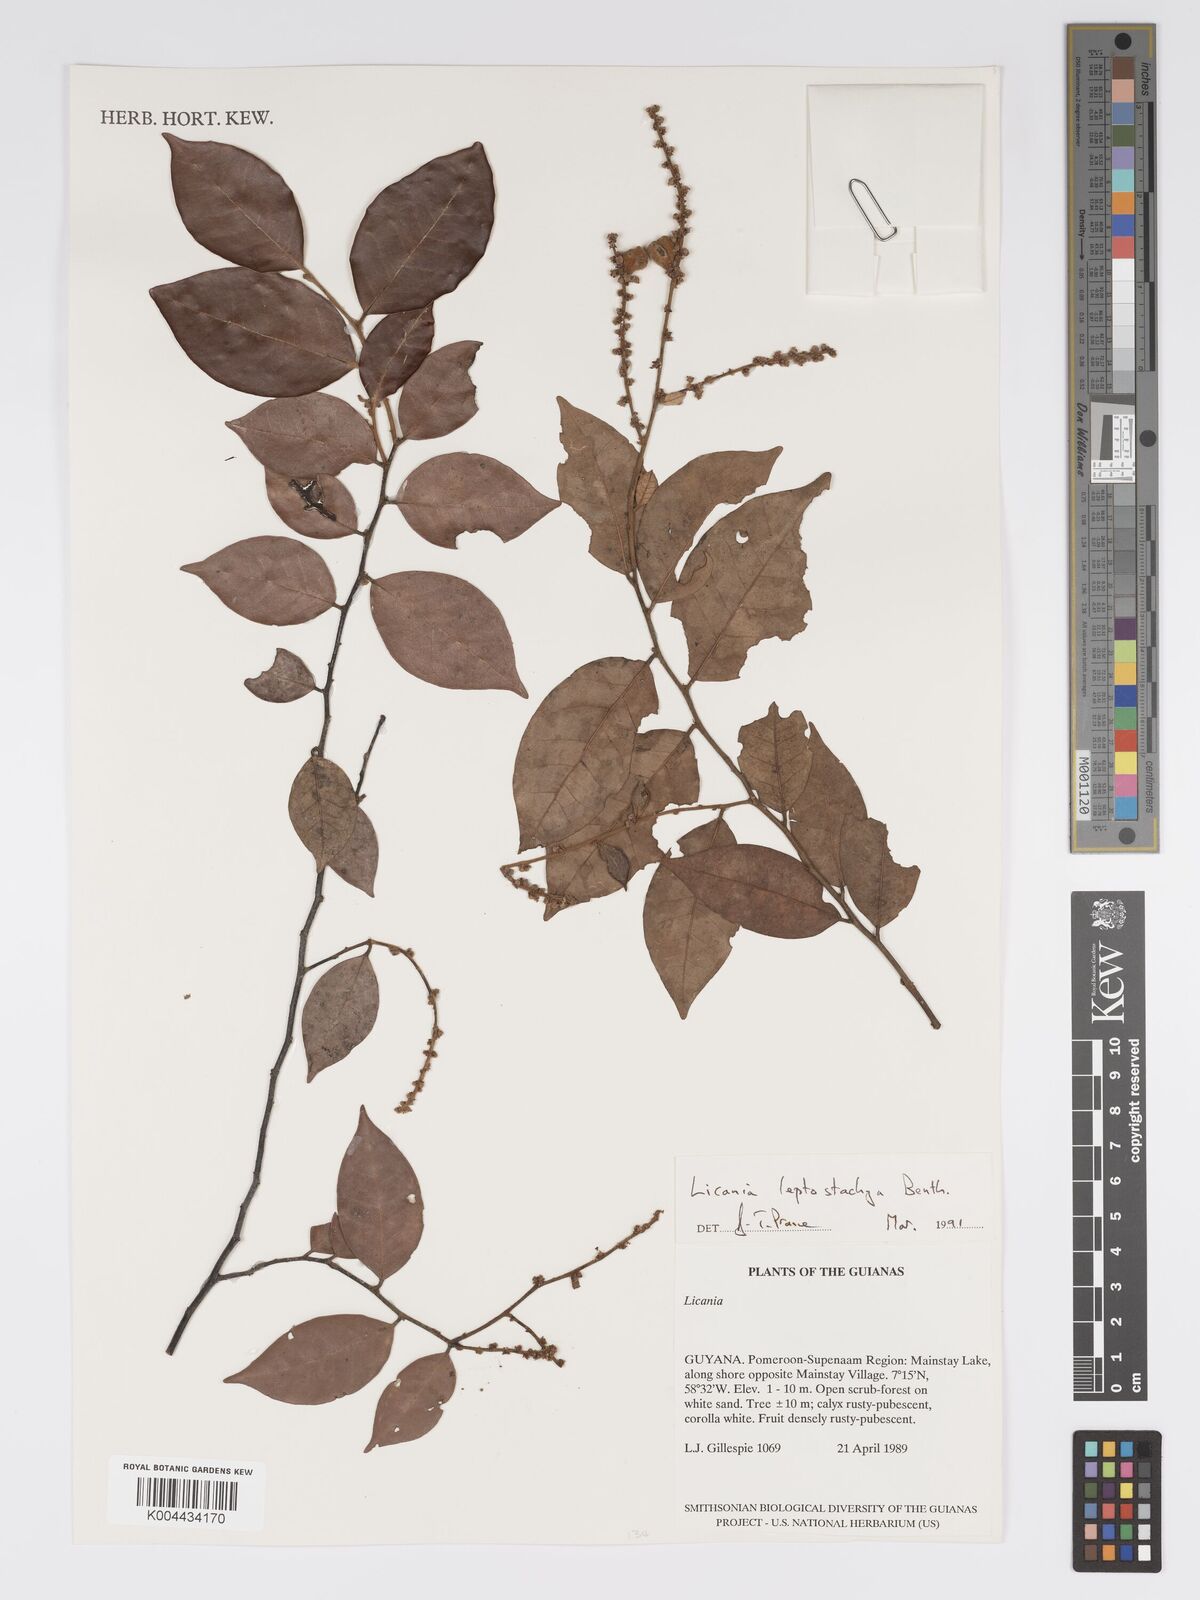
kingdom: Plantae
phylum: Tracheophyta
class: Magnoliopsida
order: Malpighiales
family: Chrysobalanaceae
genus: Licania
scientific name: Licania leptostachya
